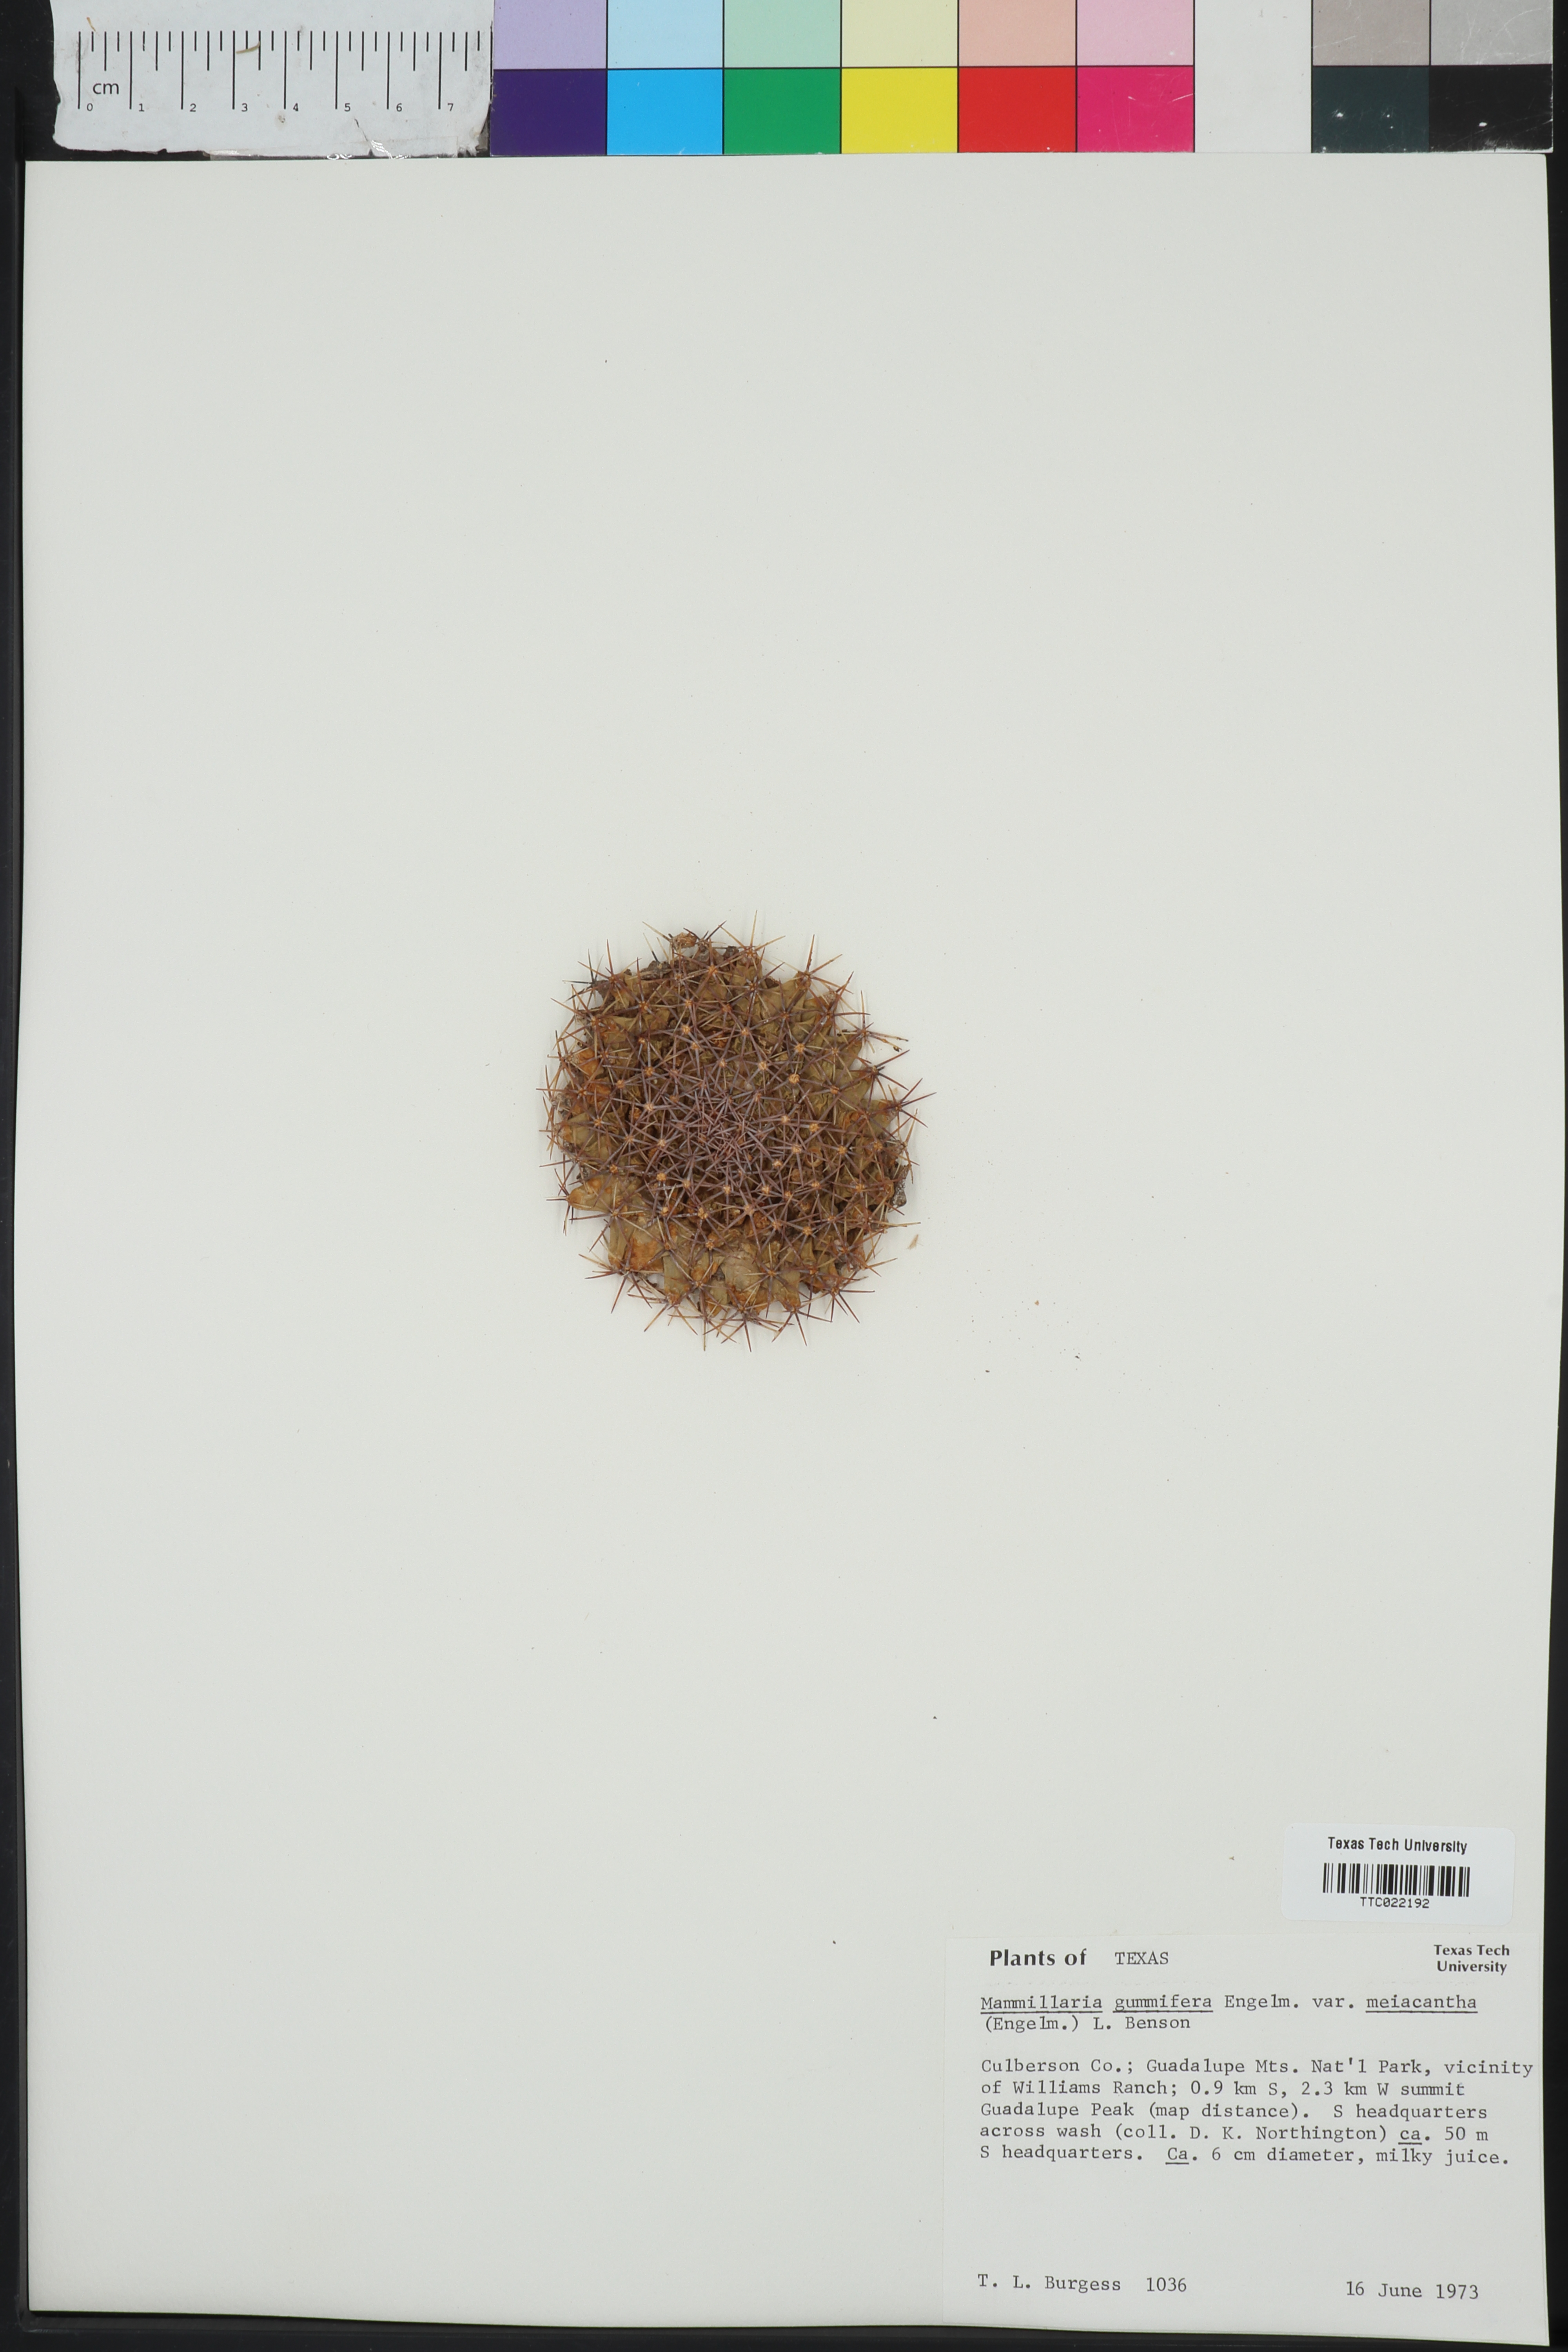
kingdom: Plantae
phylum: Tracheophyta
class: Magnoliopsida
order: Caryophyllales
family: Cactaceae
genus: Mammillaria
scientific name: Mammillaria heyderi
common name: Little nipple cactus
